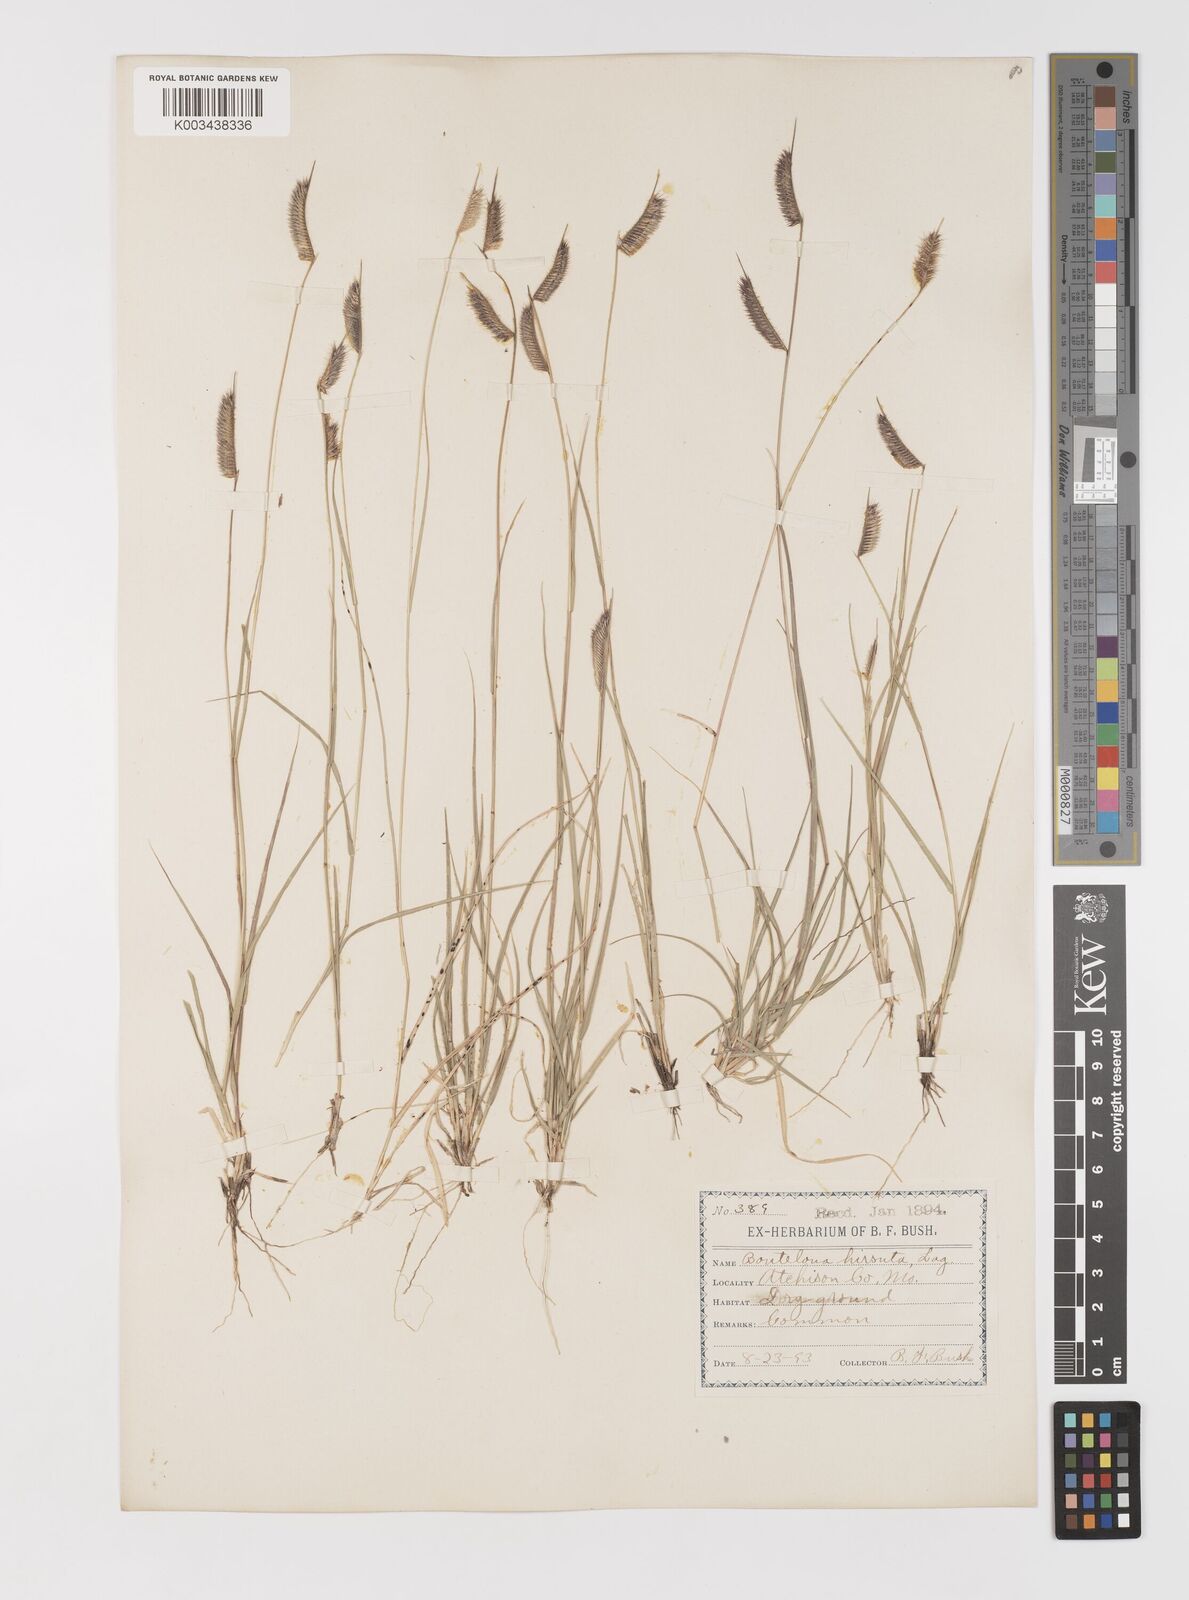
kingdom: Plantae
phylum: Tracheophyta
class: Liliopsida
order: Poales
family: Poaceae
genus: Bouteloua
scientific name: Bouteloua hirsuta
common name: Hairy grama
